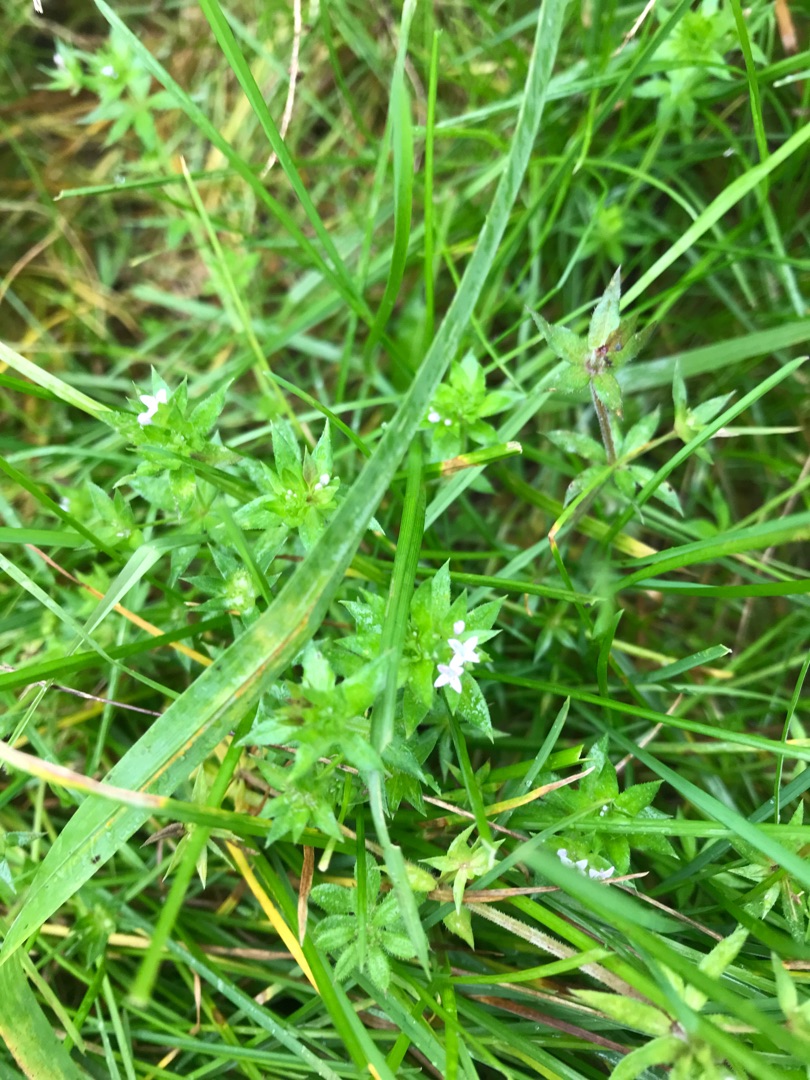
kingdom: Plantae
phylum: Tracheophyta
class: Magnoliopsida
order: Gentianales
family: Rubiaceae
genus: Sherardia
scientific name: Sherardia arvensis
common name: Blåstjerne
